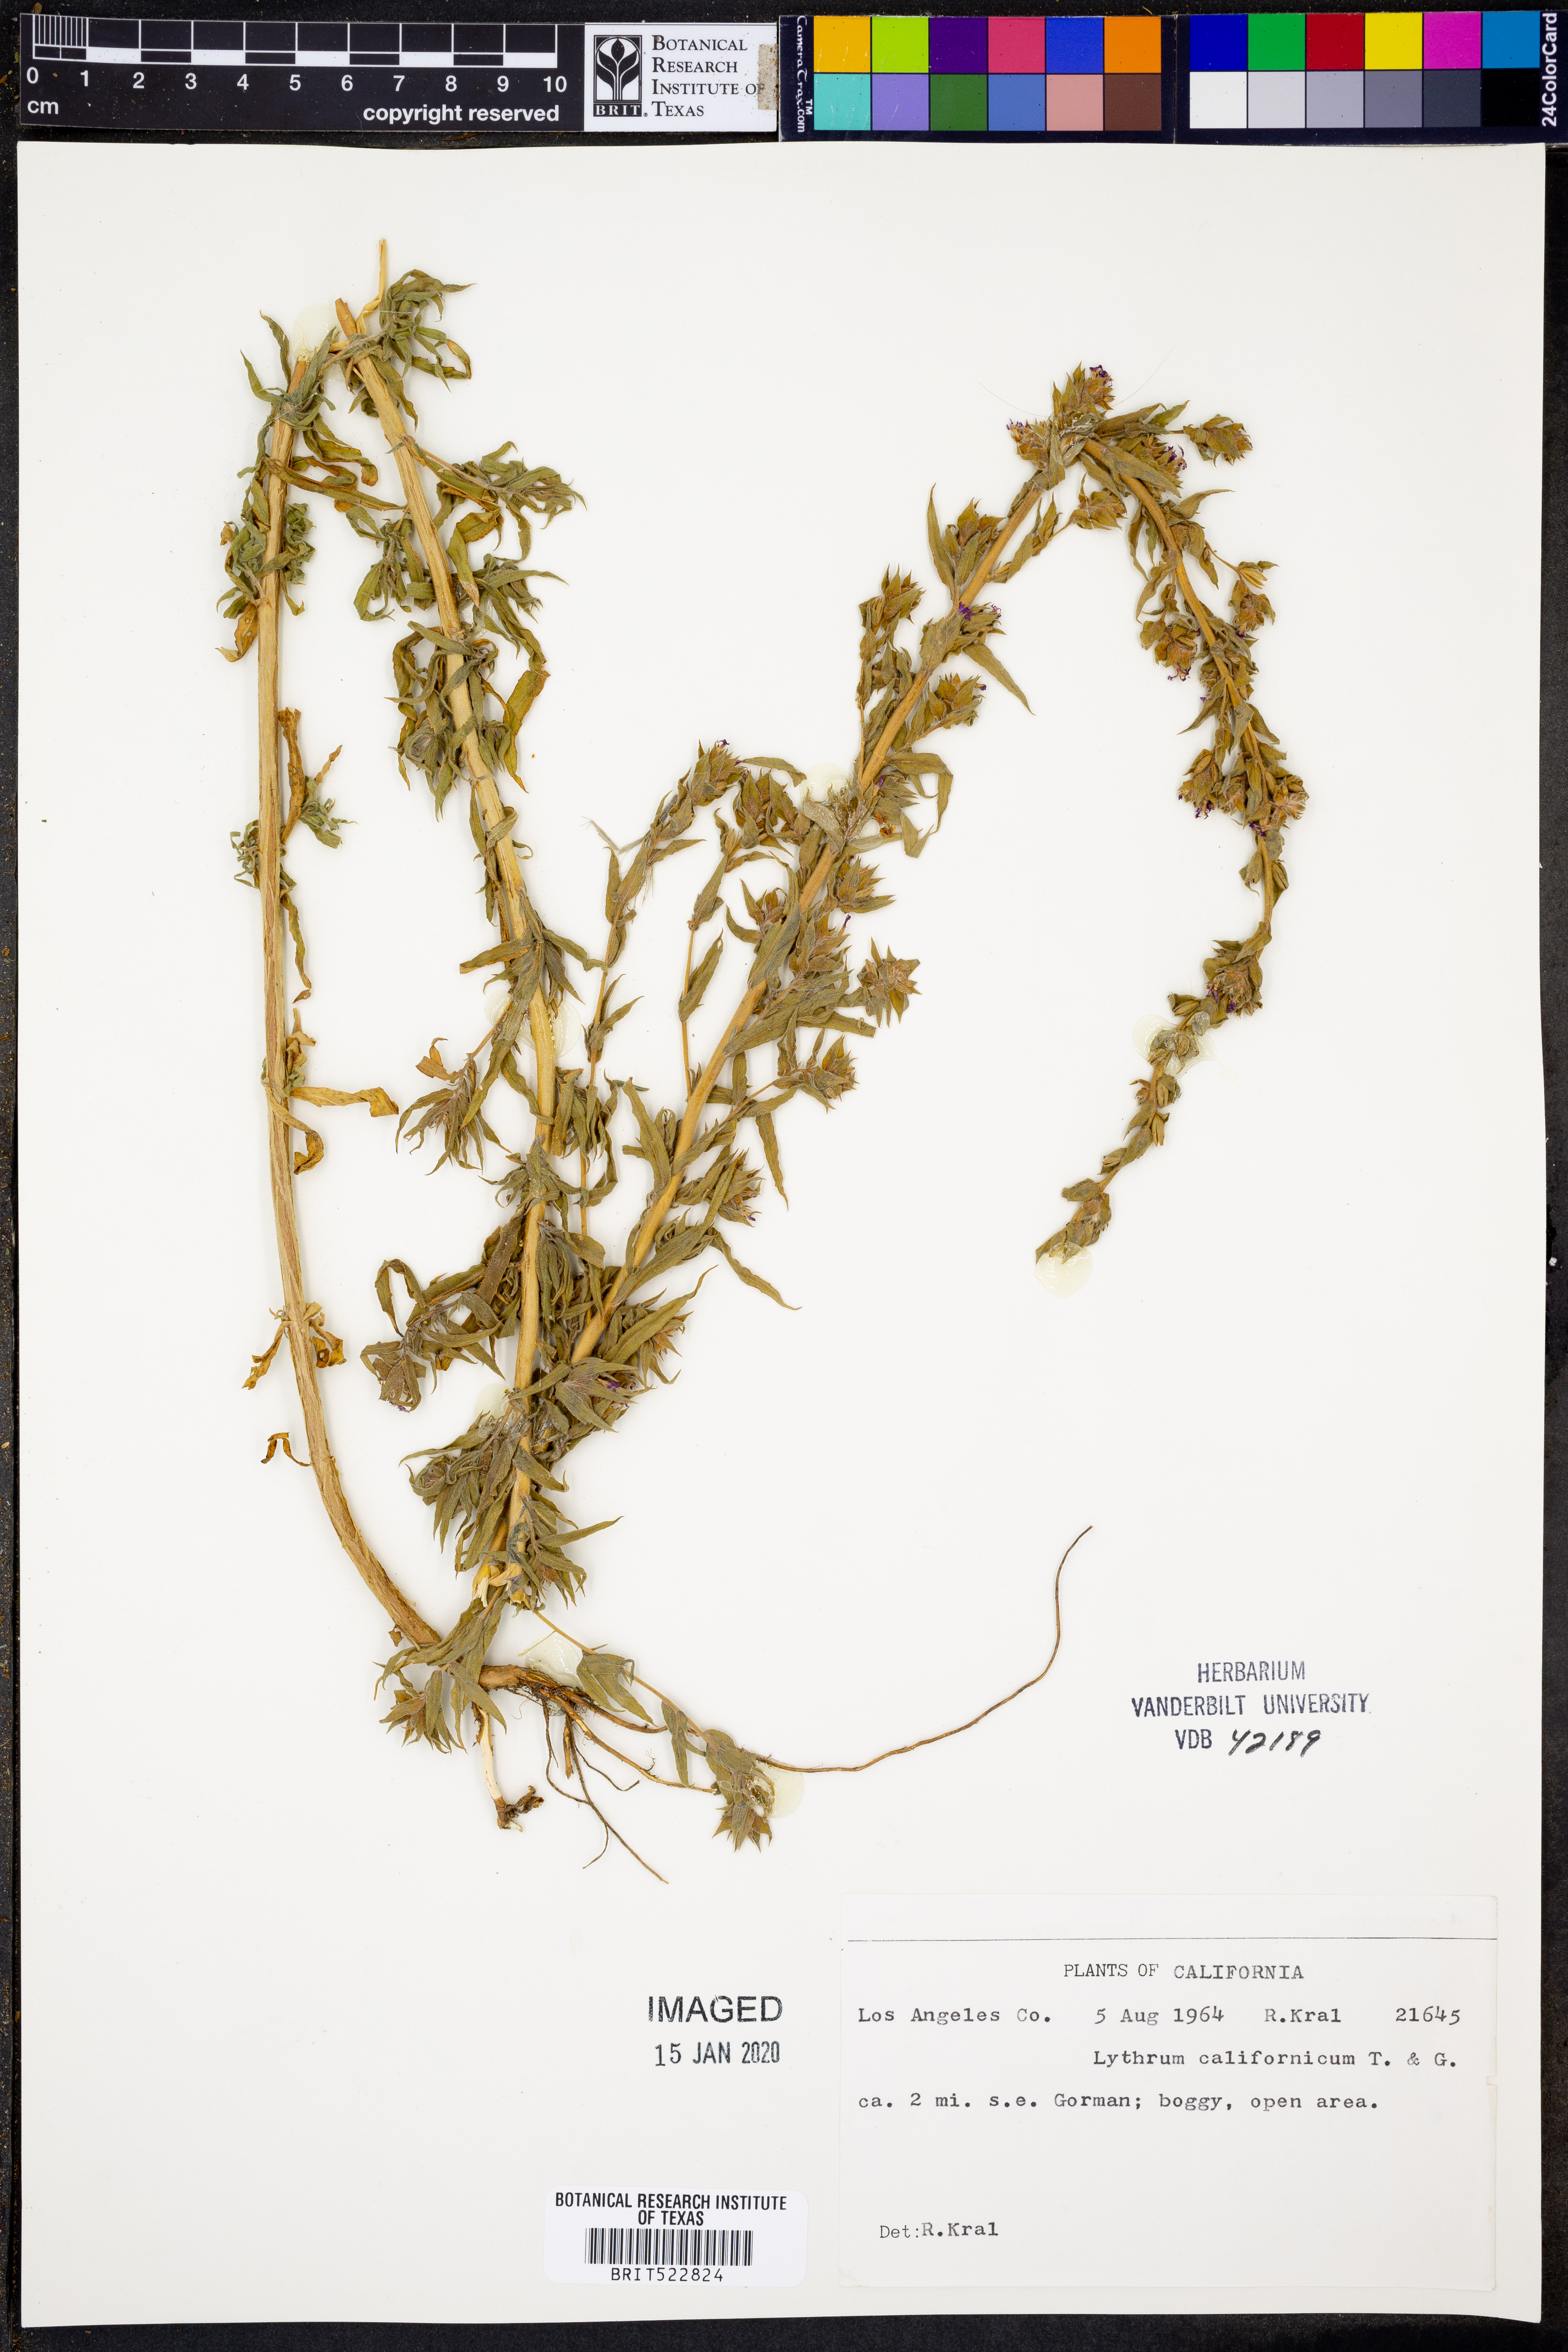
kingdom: Plantae
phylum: Tracheophyta
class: Magnoliopsida
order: Myrtales
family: Lythraceae
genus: Lythrum
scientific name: Lythrum californicum
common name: California loosestrife
